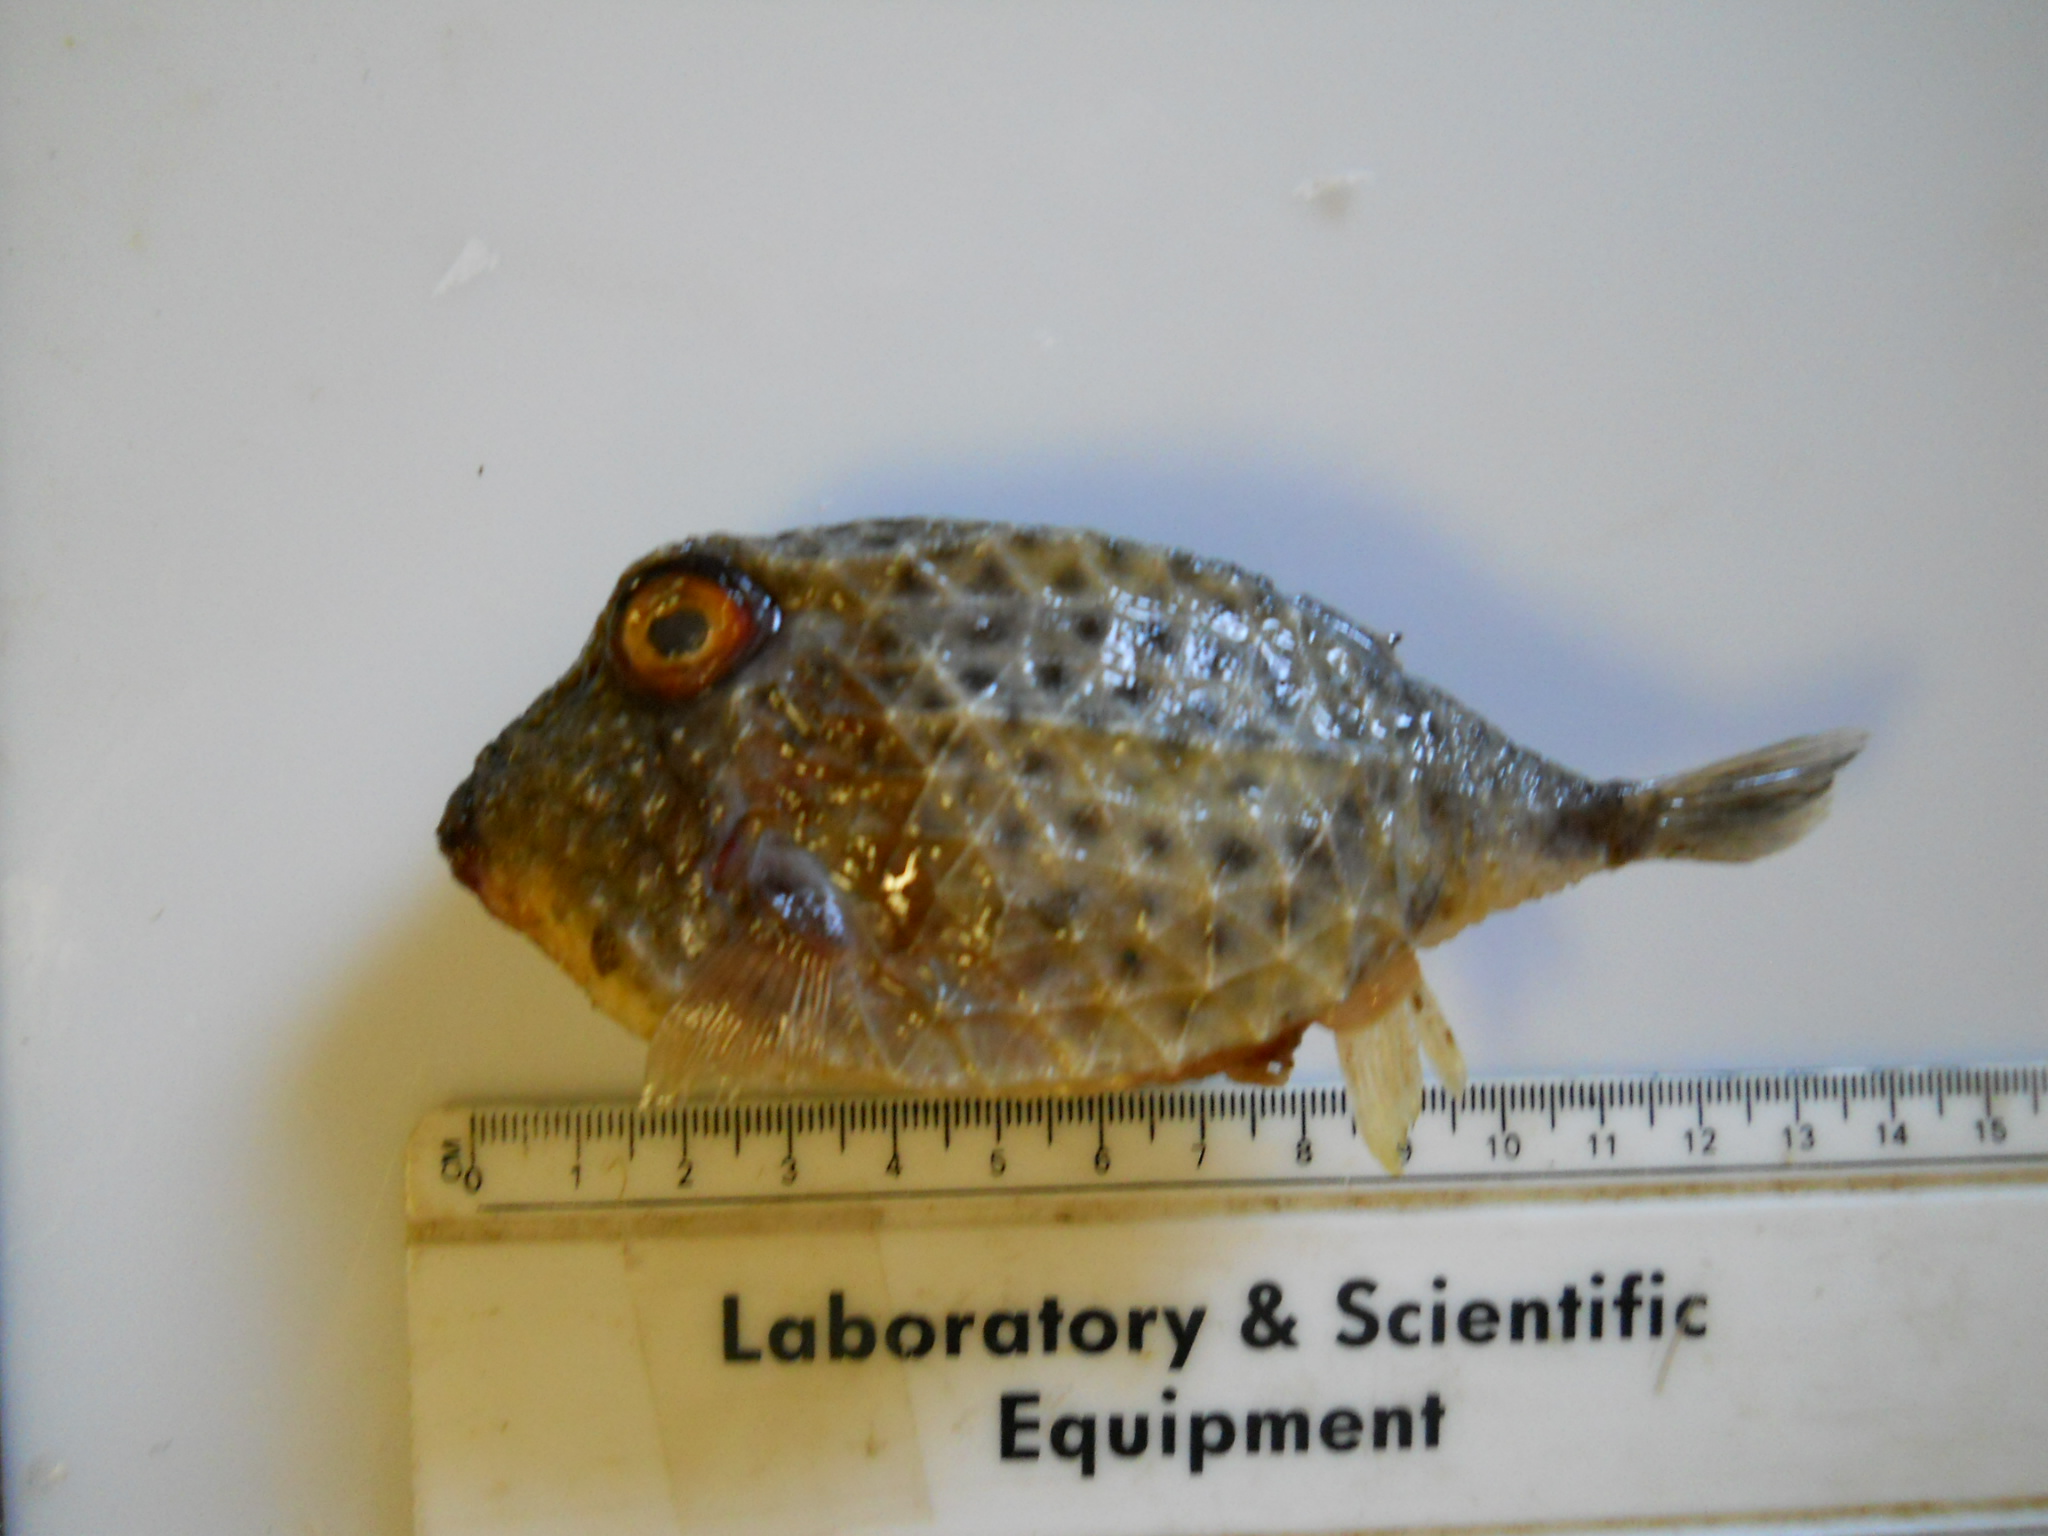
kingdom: Animalia
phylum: Chordata
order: Tetraodontiformes
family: Aracanidae
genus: Kentrocapros
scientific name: Kentrocapros rosapinto
